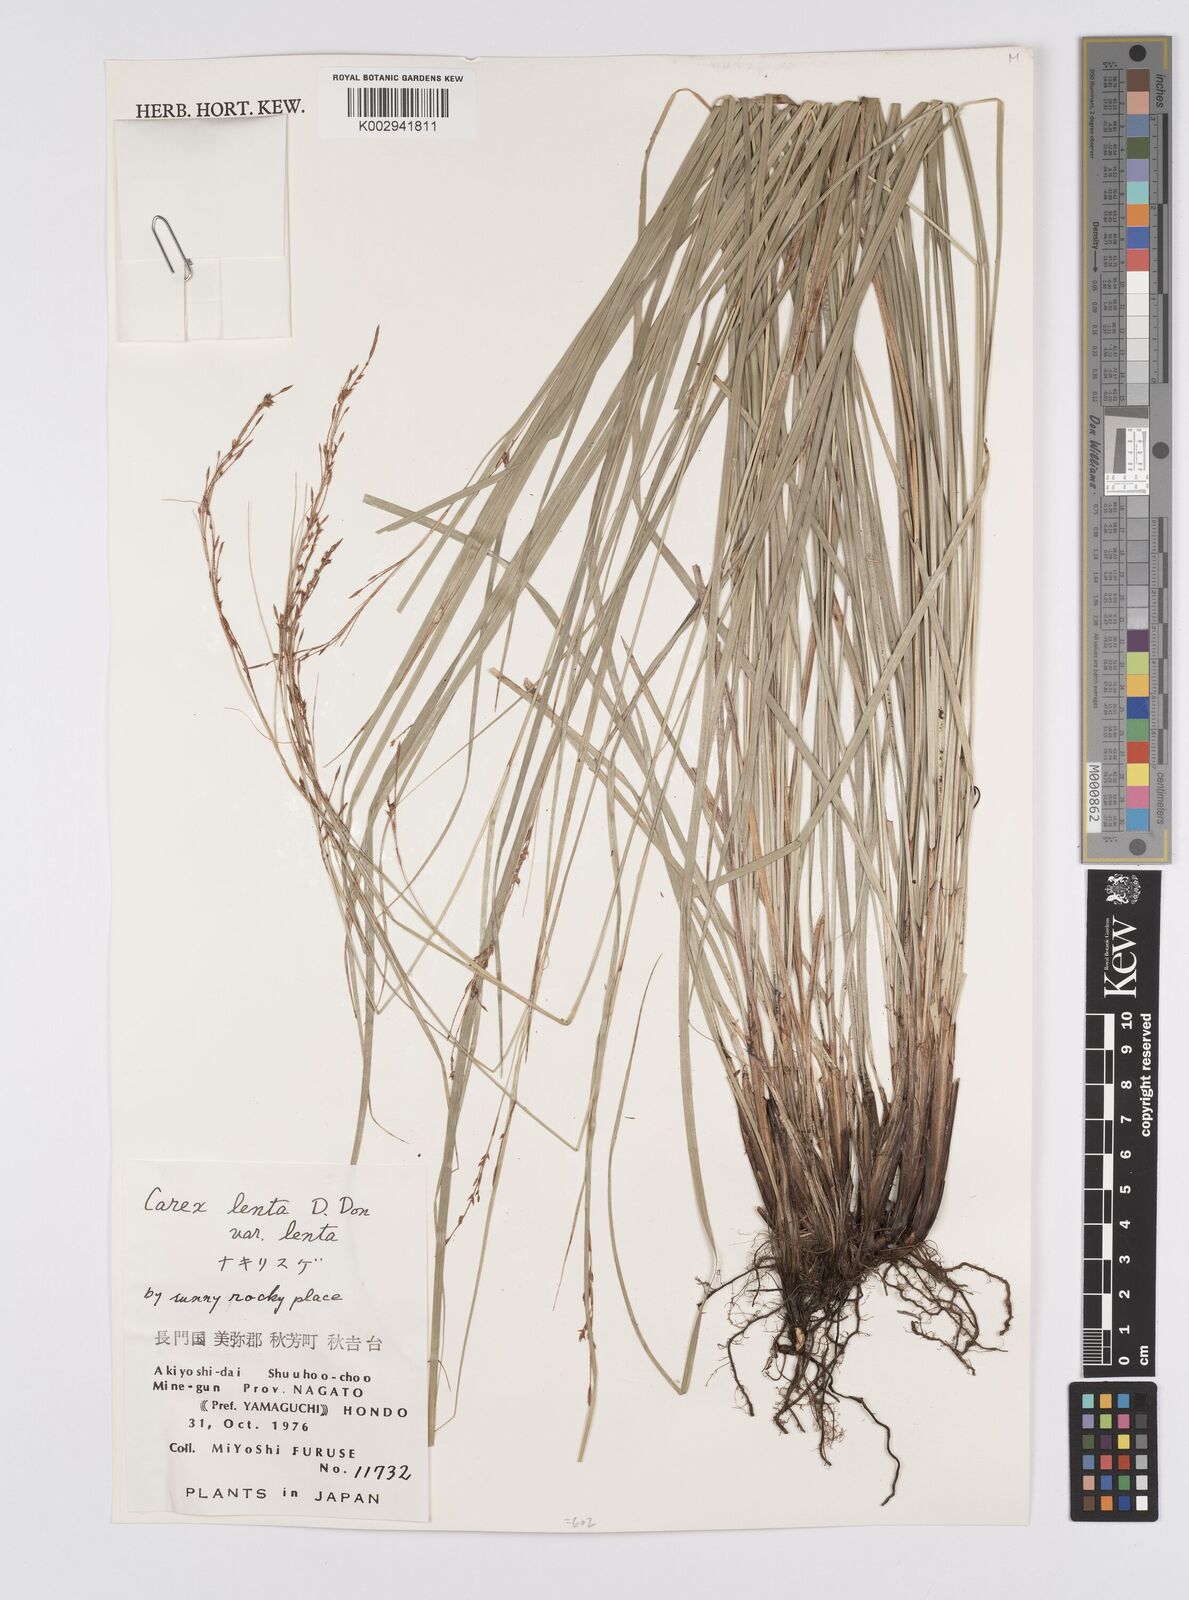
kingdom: Plantae
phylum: Tracheophyta
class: Liliopsida
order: Poales
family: Cyperaceae
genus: Carex
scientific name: Carex brunnea
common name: Greater brown sedge
